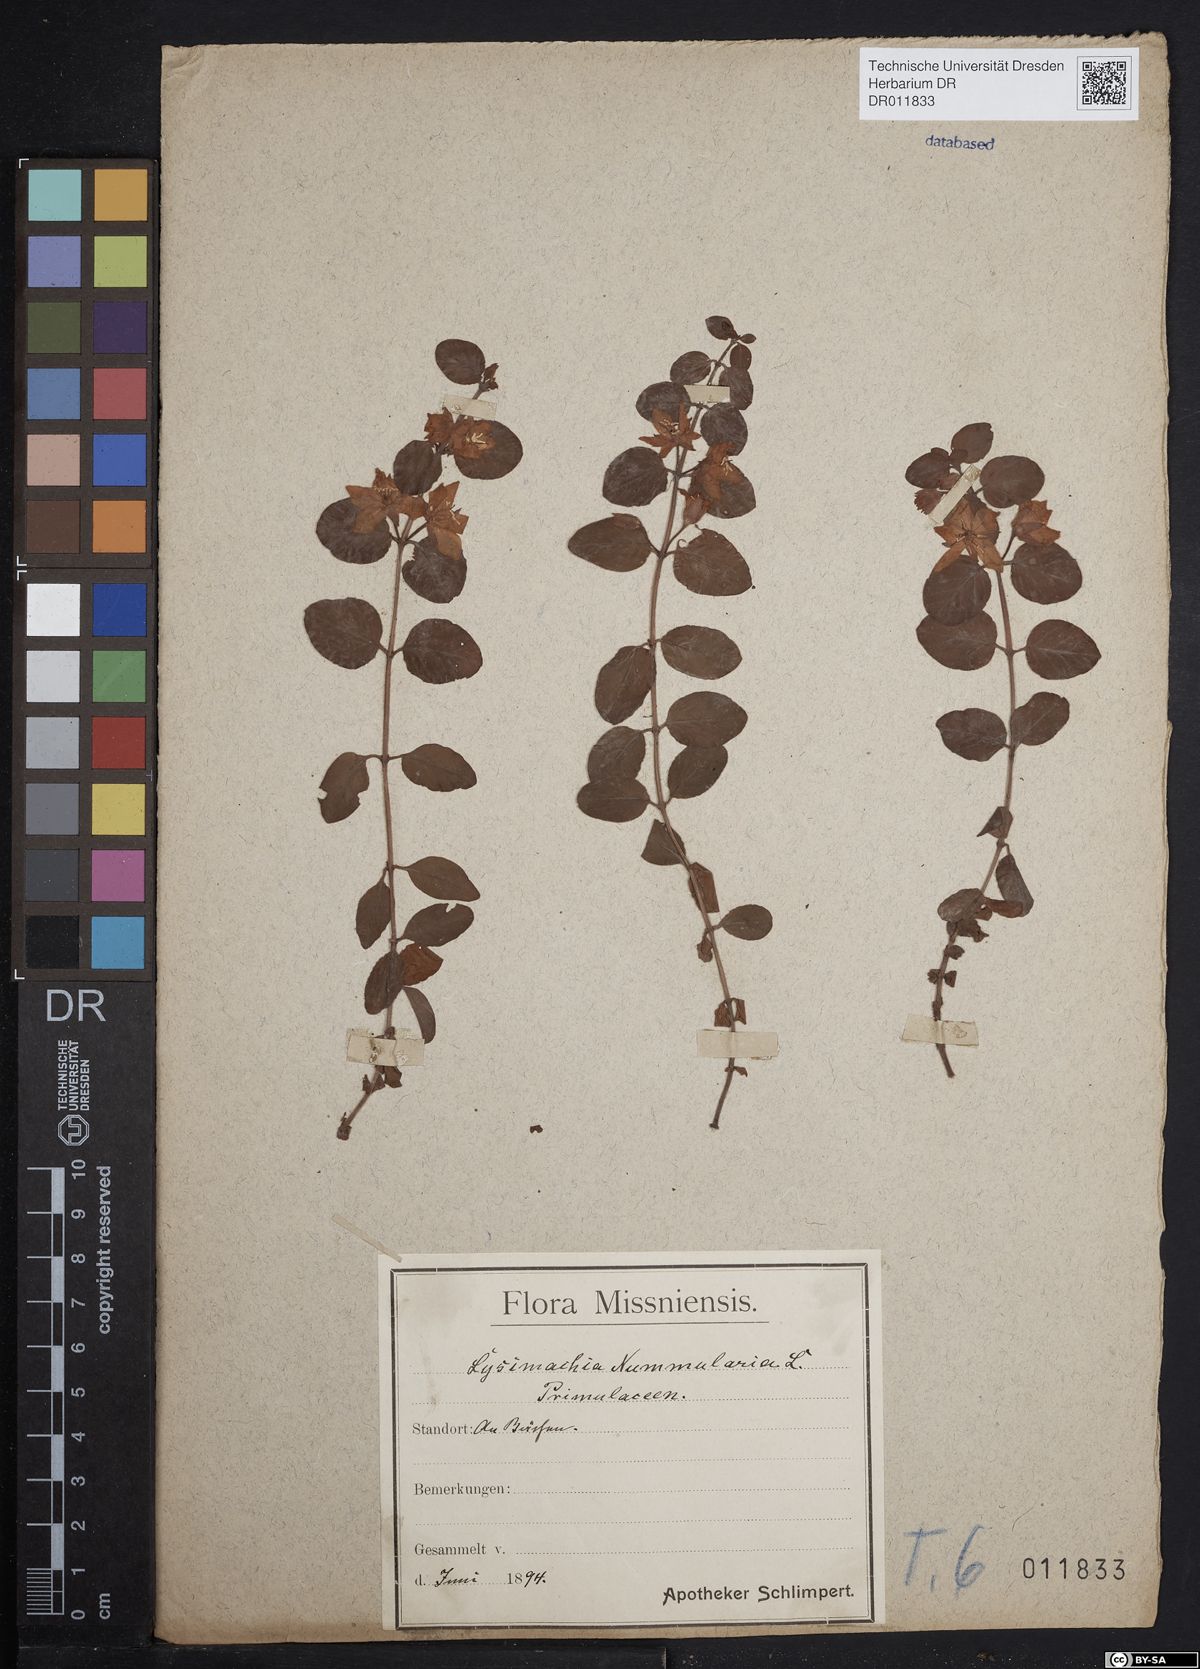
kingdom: Plantae
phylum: Tracheophyta
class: Magnoliopsida
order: Ericales
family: Primulaceae
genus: Lysimachia
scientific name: Lysimachia nummularia
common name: Moneywort
